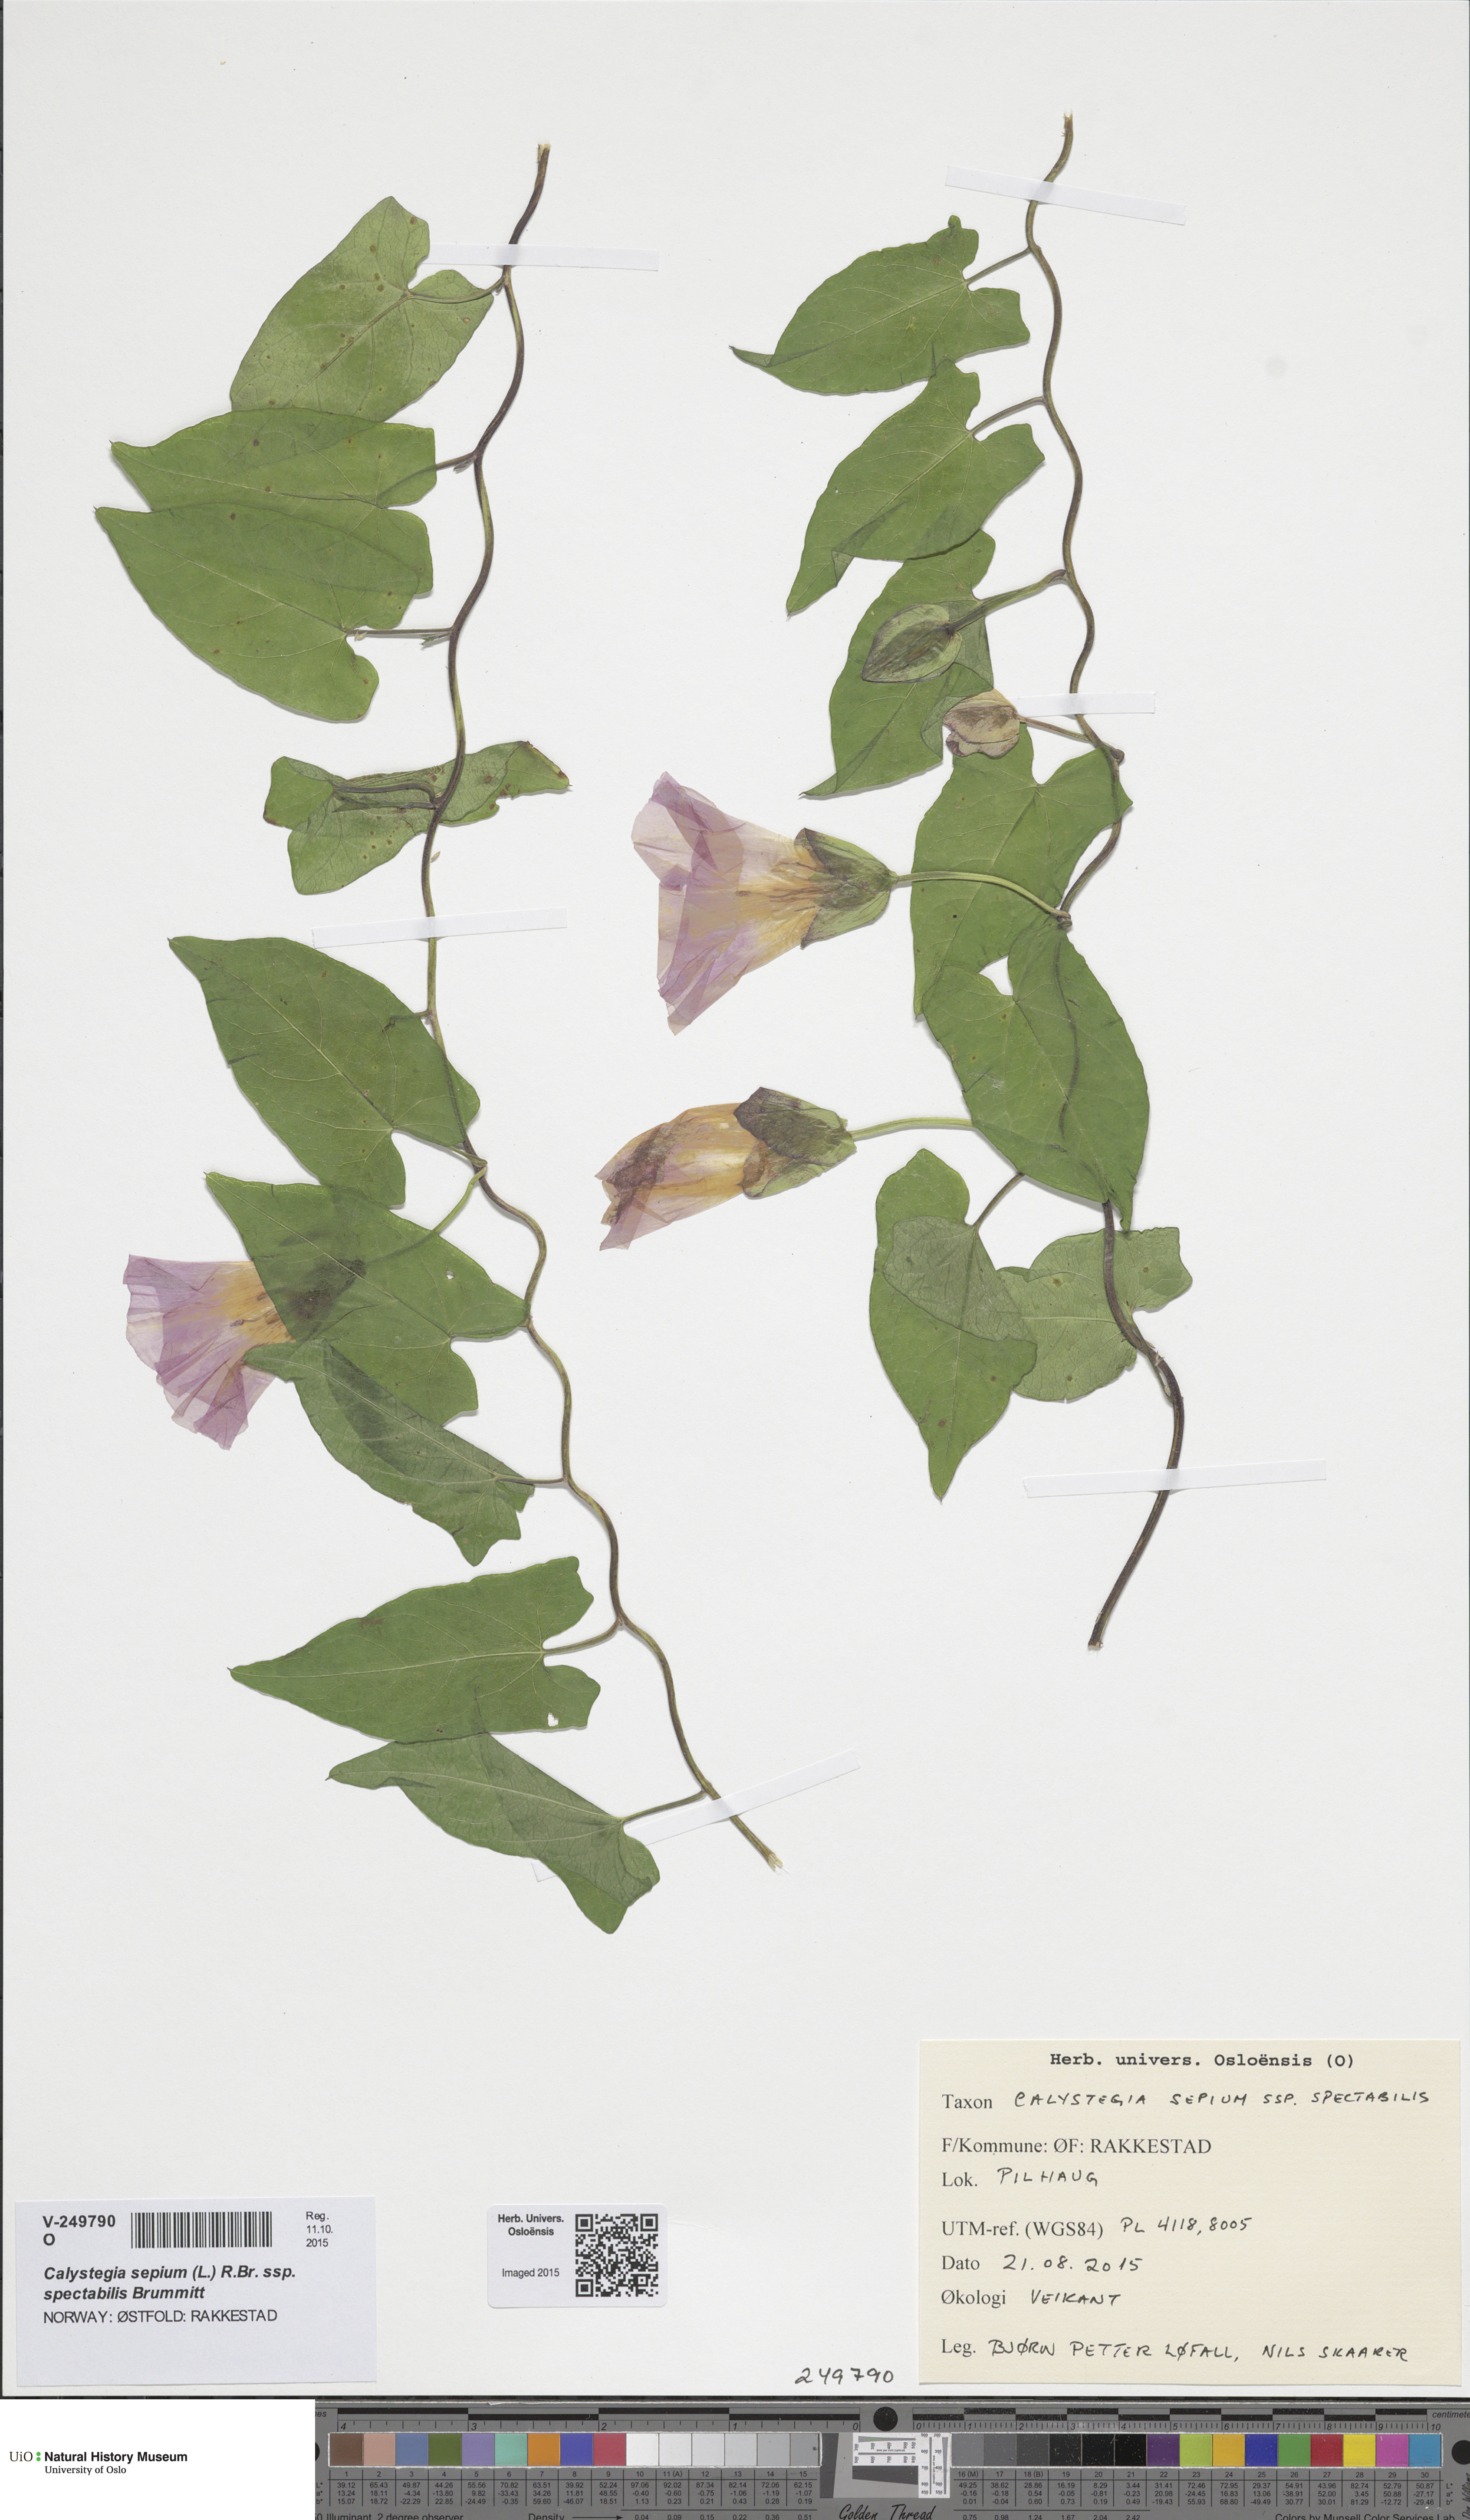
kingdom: Plantae
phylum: Tracheophyta
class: Magnoliopsida
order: Solanales
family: Convolvulaceae
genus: Calystegia
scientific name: Calystegia pulchra
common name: Hairy bindweed
